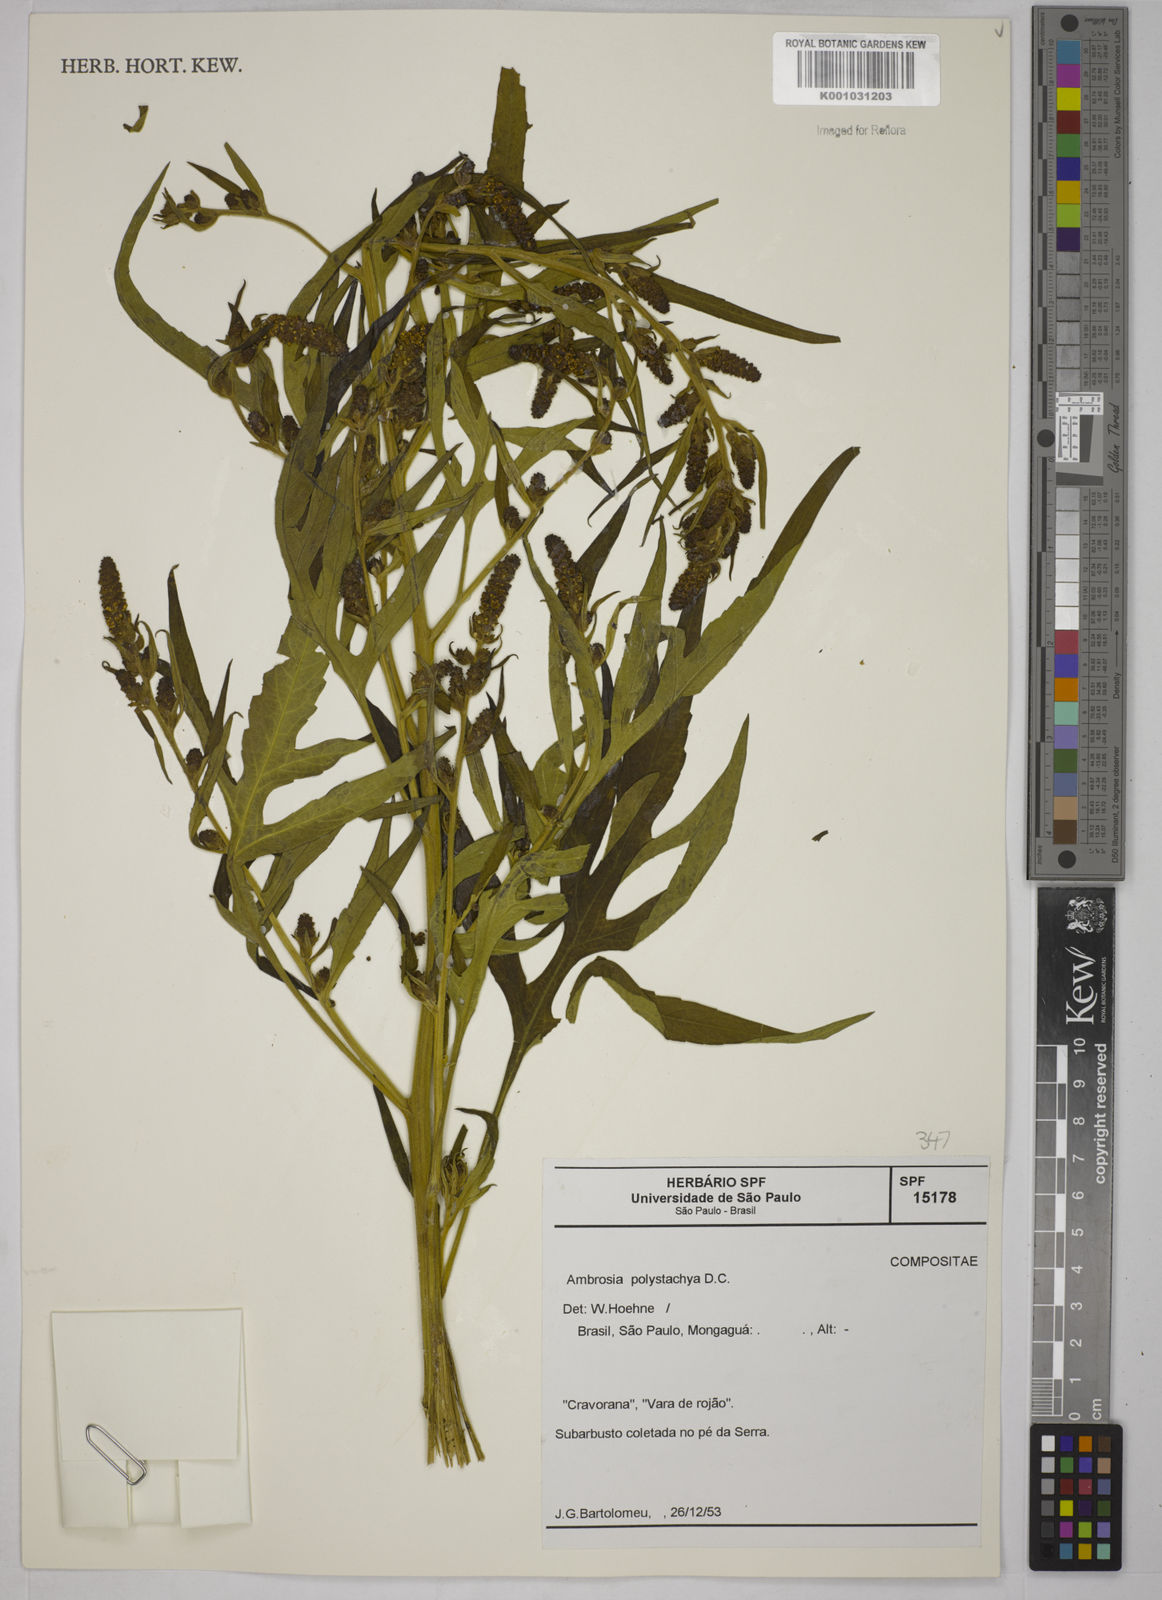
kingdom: Plantae
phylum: Tracheophyta
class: Magnoliopsida
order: Asterales
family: Asteraceae
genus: Ambrosia
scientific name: Ambrosia polystachya
